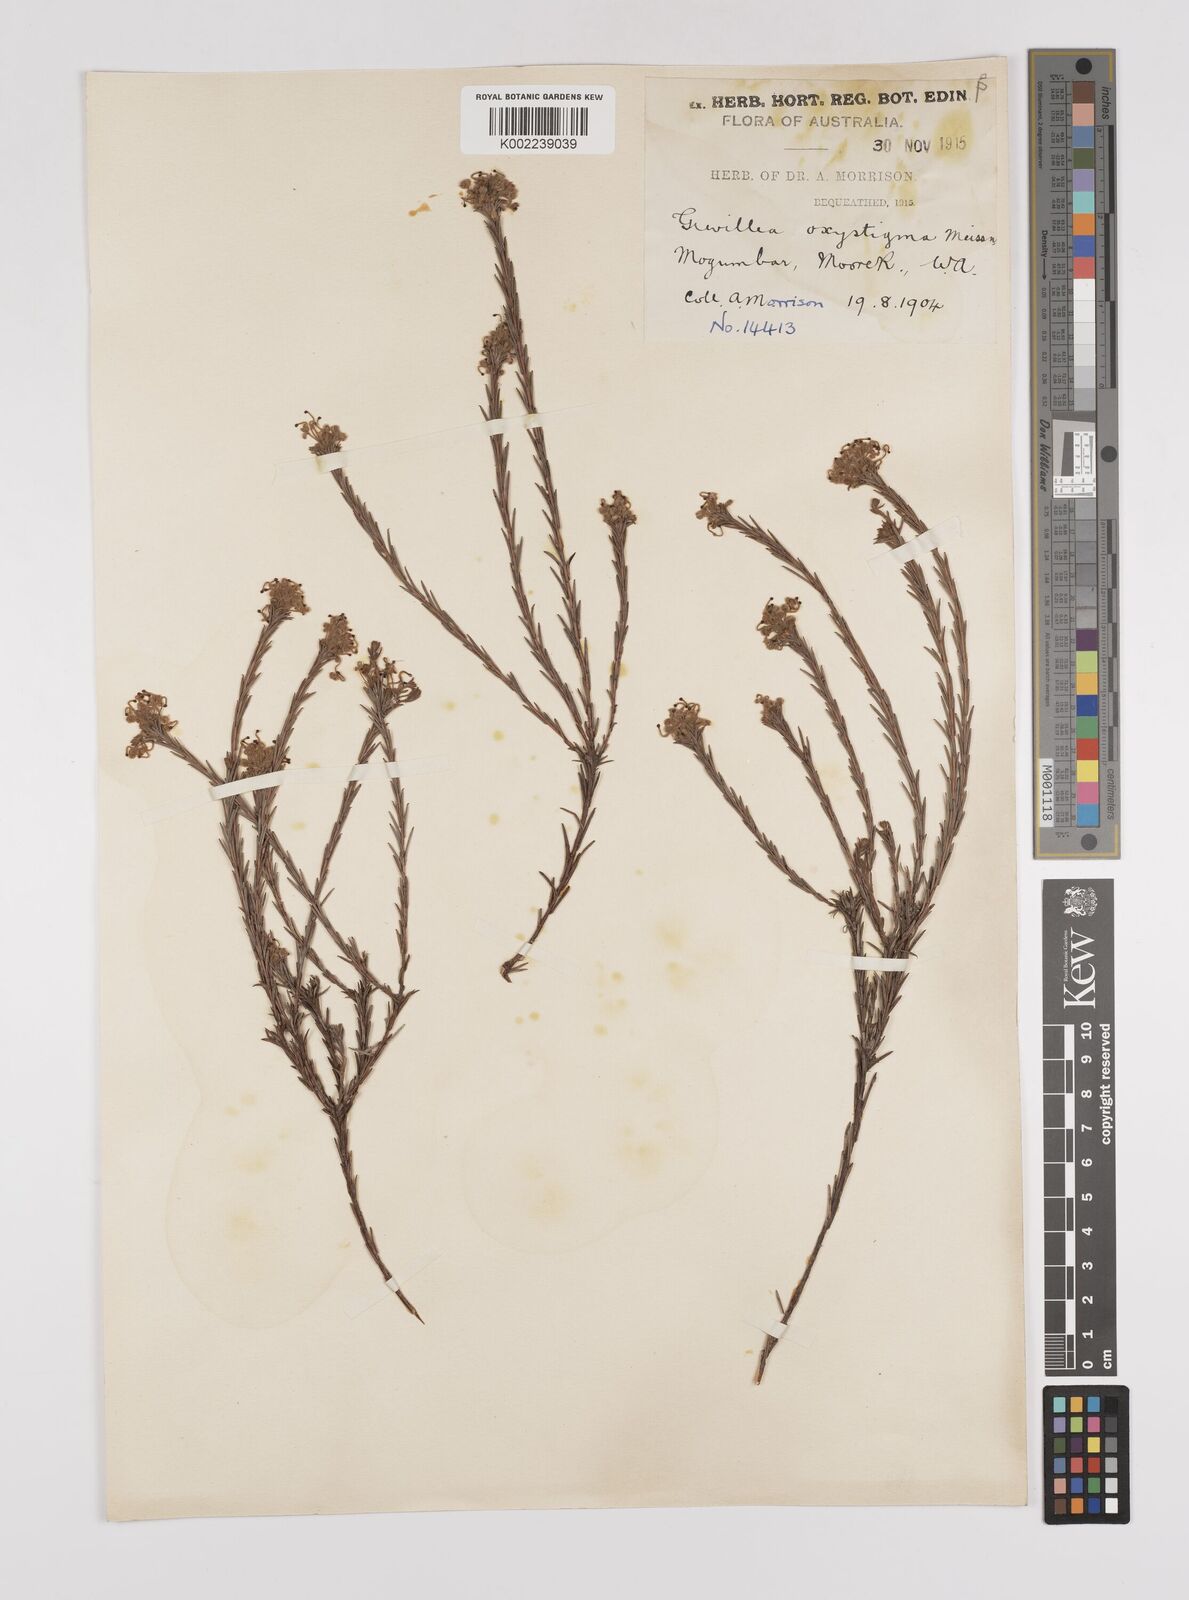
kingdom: Plantae
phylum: Tracheophyta
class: Magnoliopsida
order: Proteales
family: Proteaceae
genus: Grevillea
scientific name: Grevillea pilulifera
